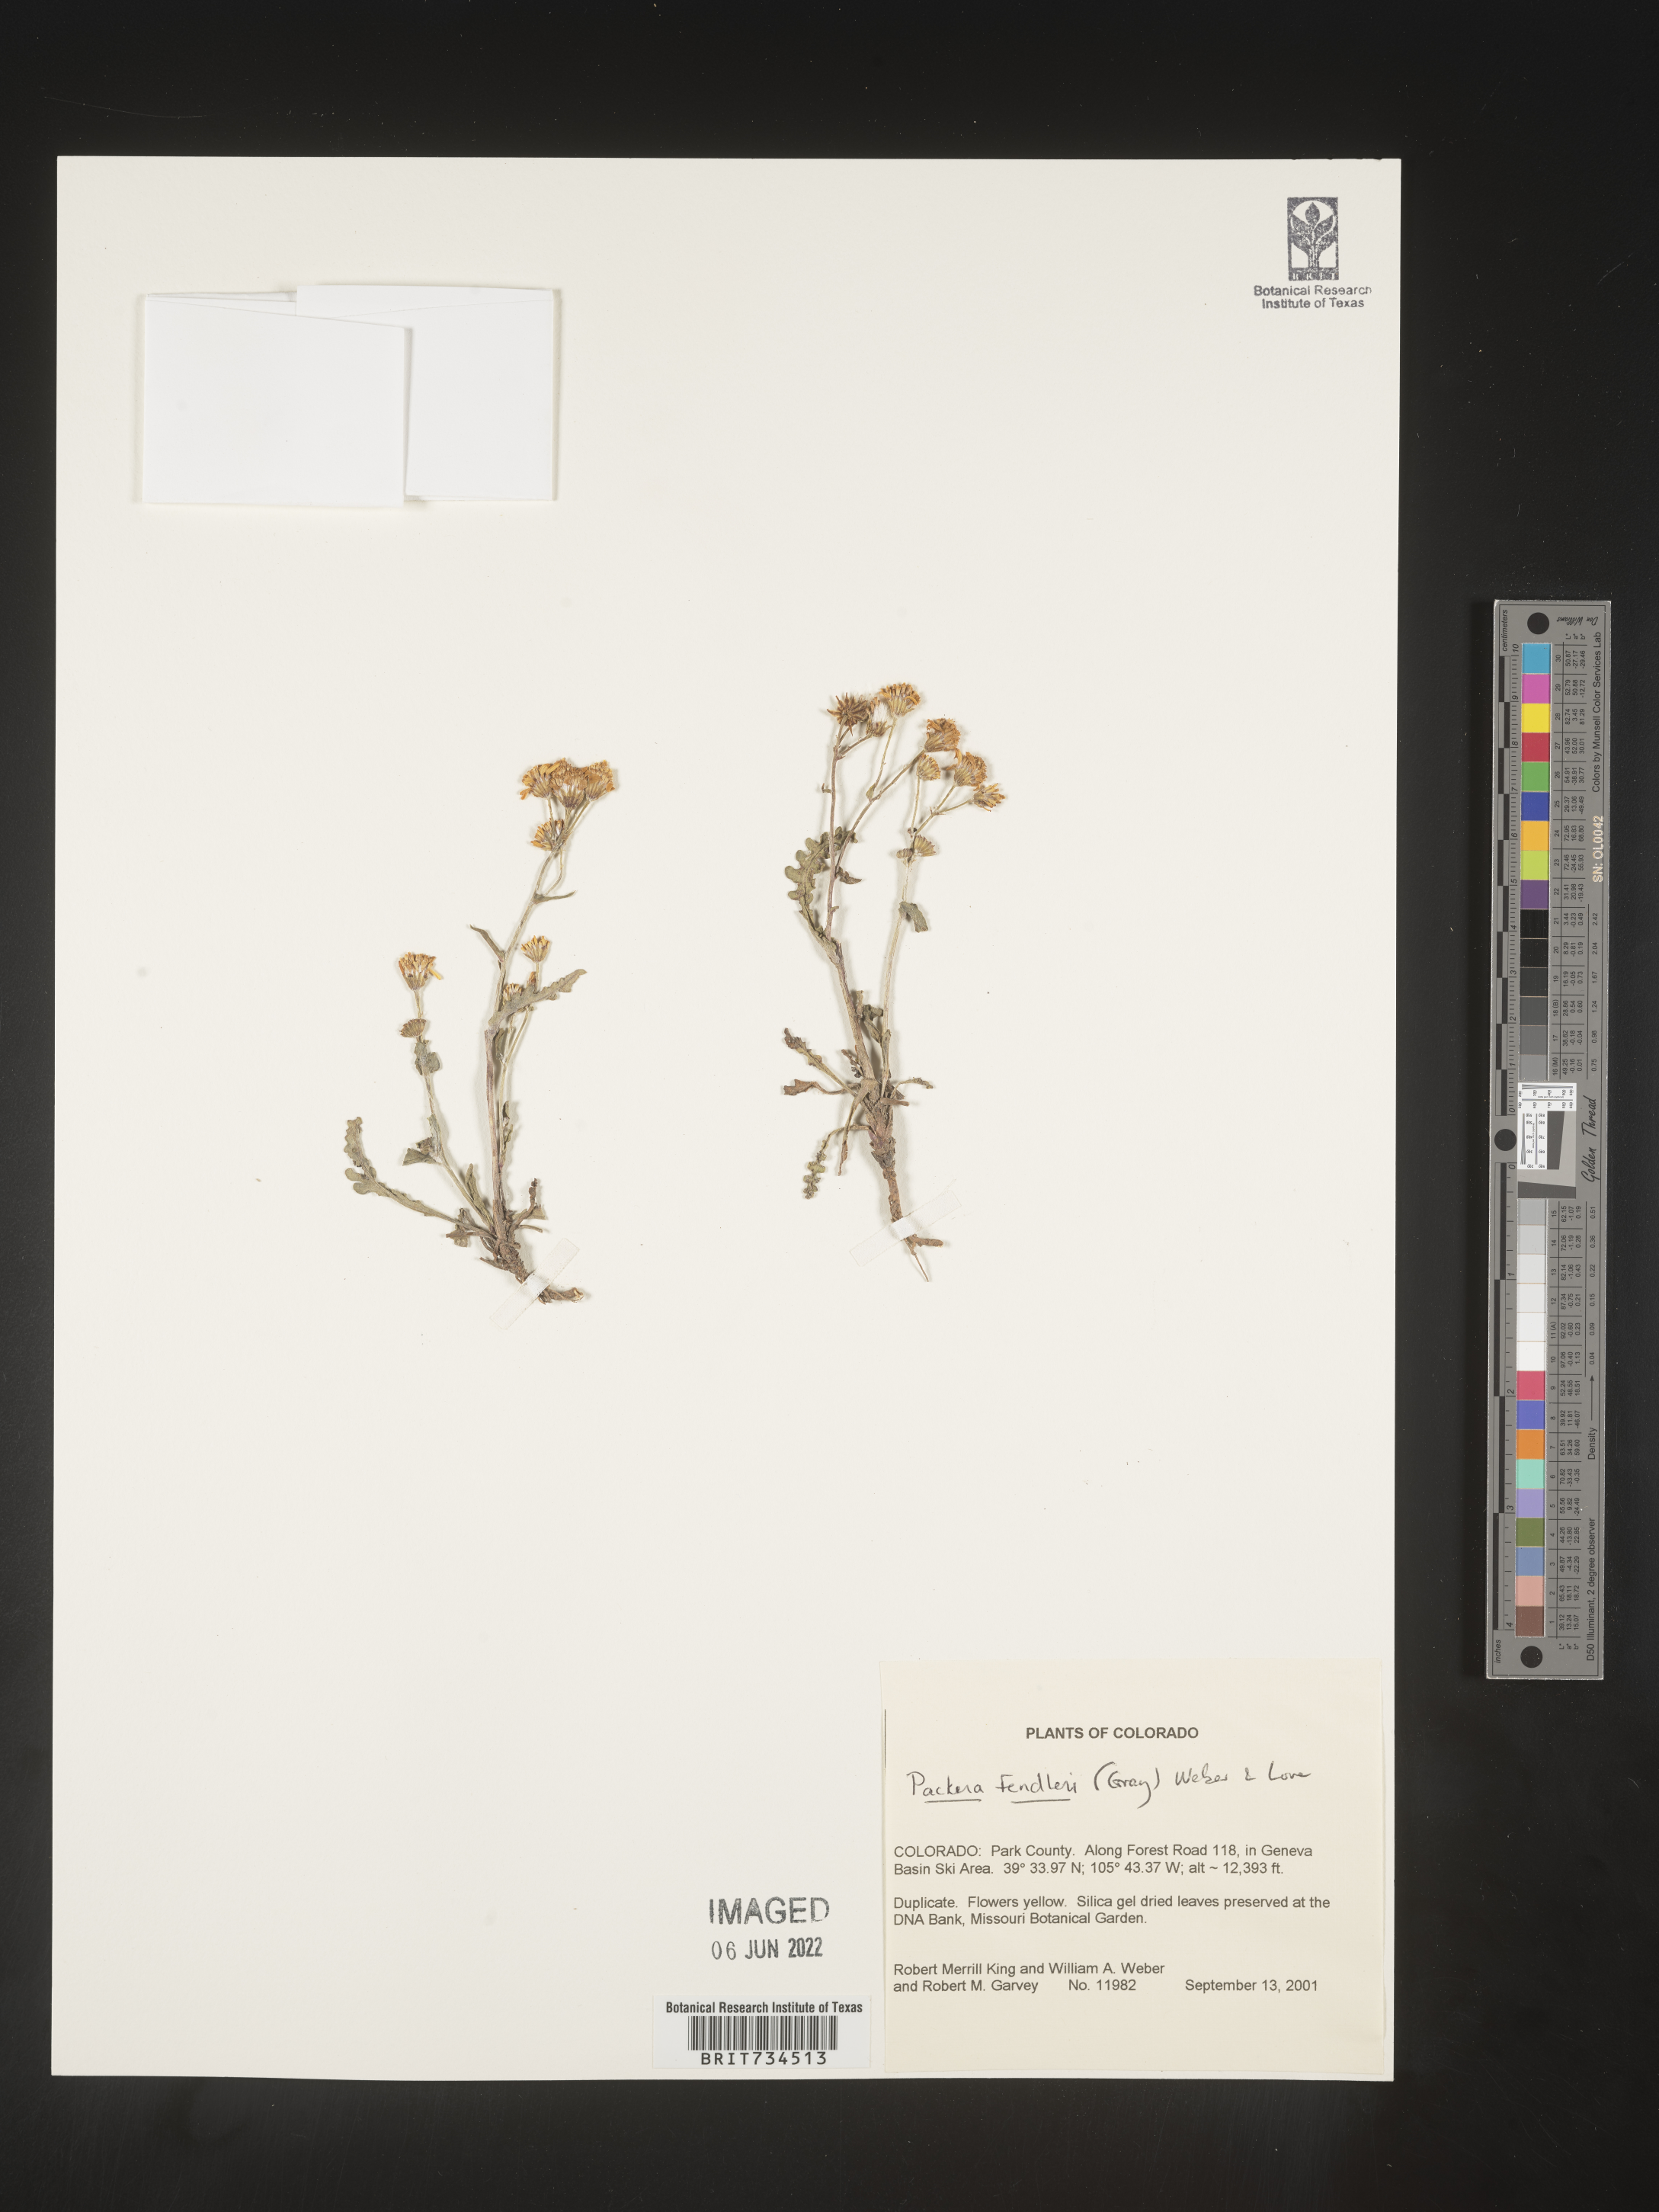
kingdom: Plantae
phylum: Tracheophyta
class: Magnoliopsida
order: Asterales
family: Asteraceae
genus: Packera
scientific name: Packera fendleri
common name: Notch-leaf butterweed
